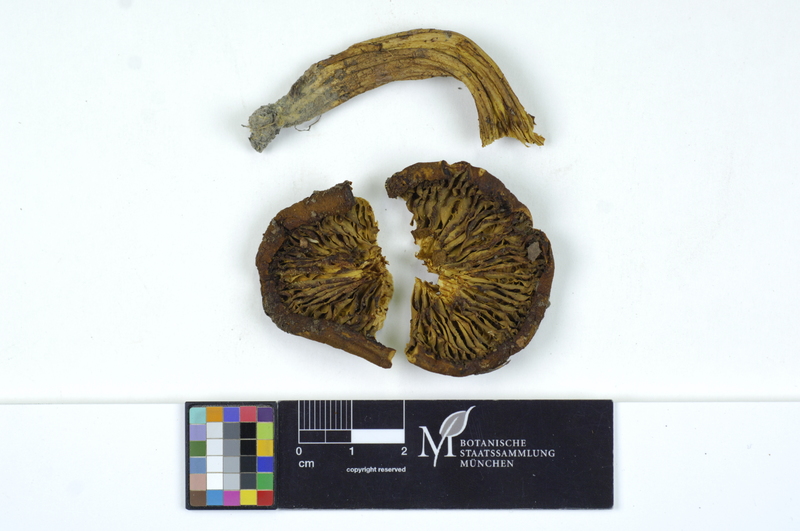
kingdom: Fungi
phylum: Basidiomycota
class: Agaricomycetes
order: Boletales
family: Boletaceae
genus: Phylloporus
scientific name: Phylloporus rhodoxanthus
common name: Golden gilled bolete
